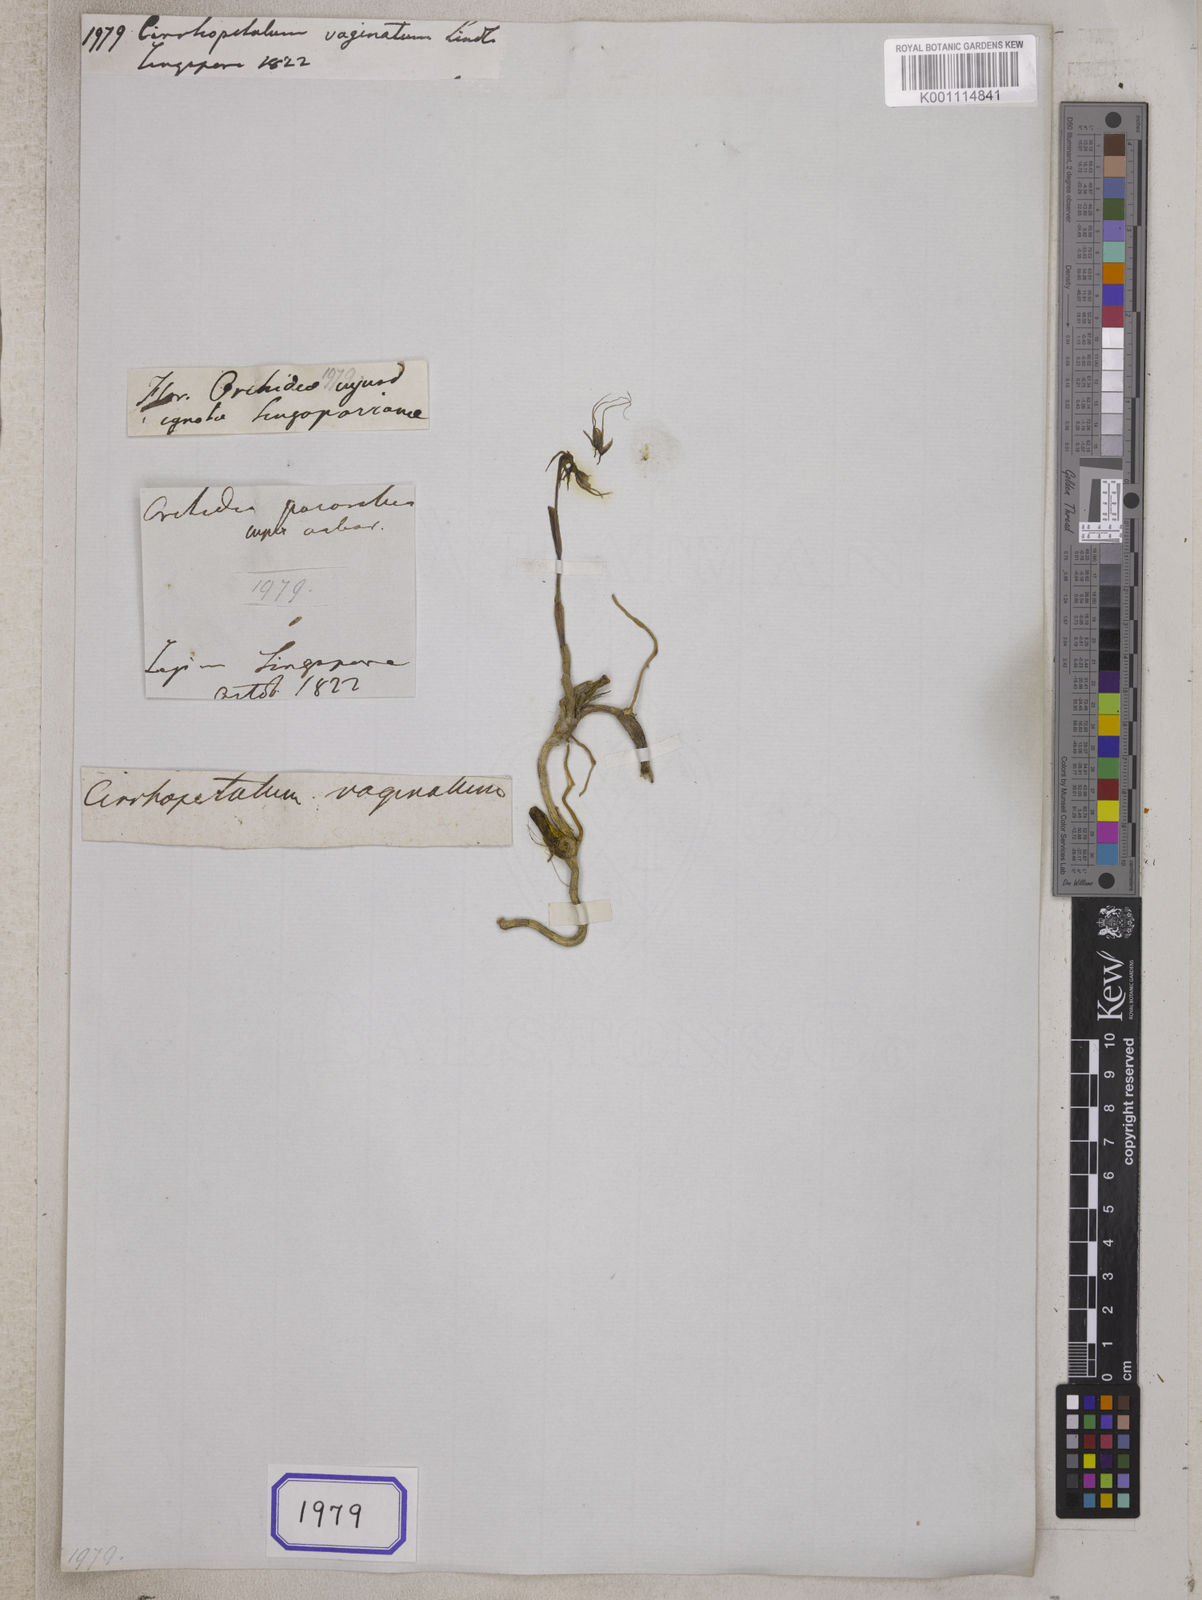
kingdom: Plantae
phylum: Tracheophyta
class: Liliopsida
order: Asparagales
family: Orchidaceae
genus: Bulbophyllum
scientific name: Bulbophyllum vaginatum
